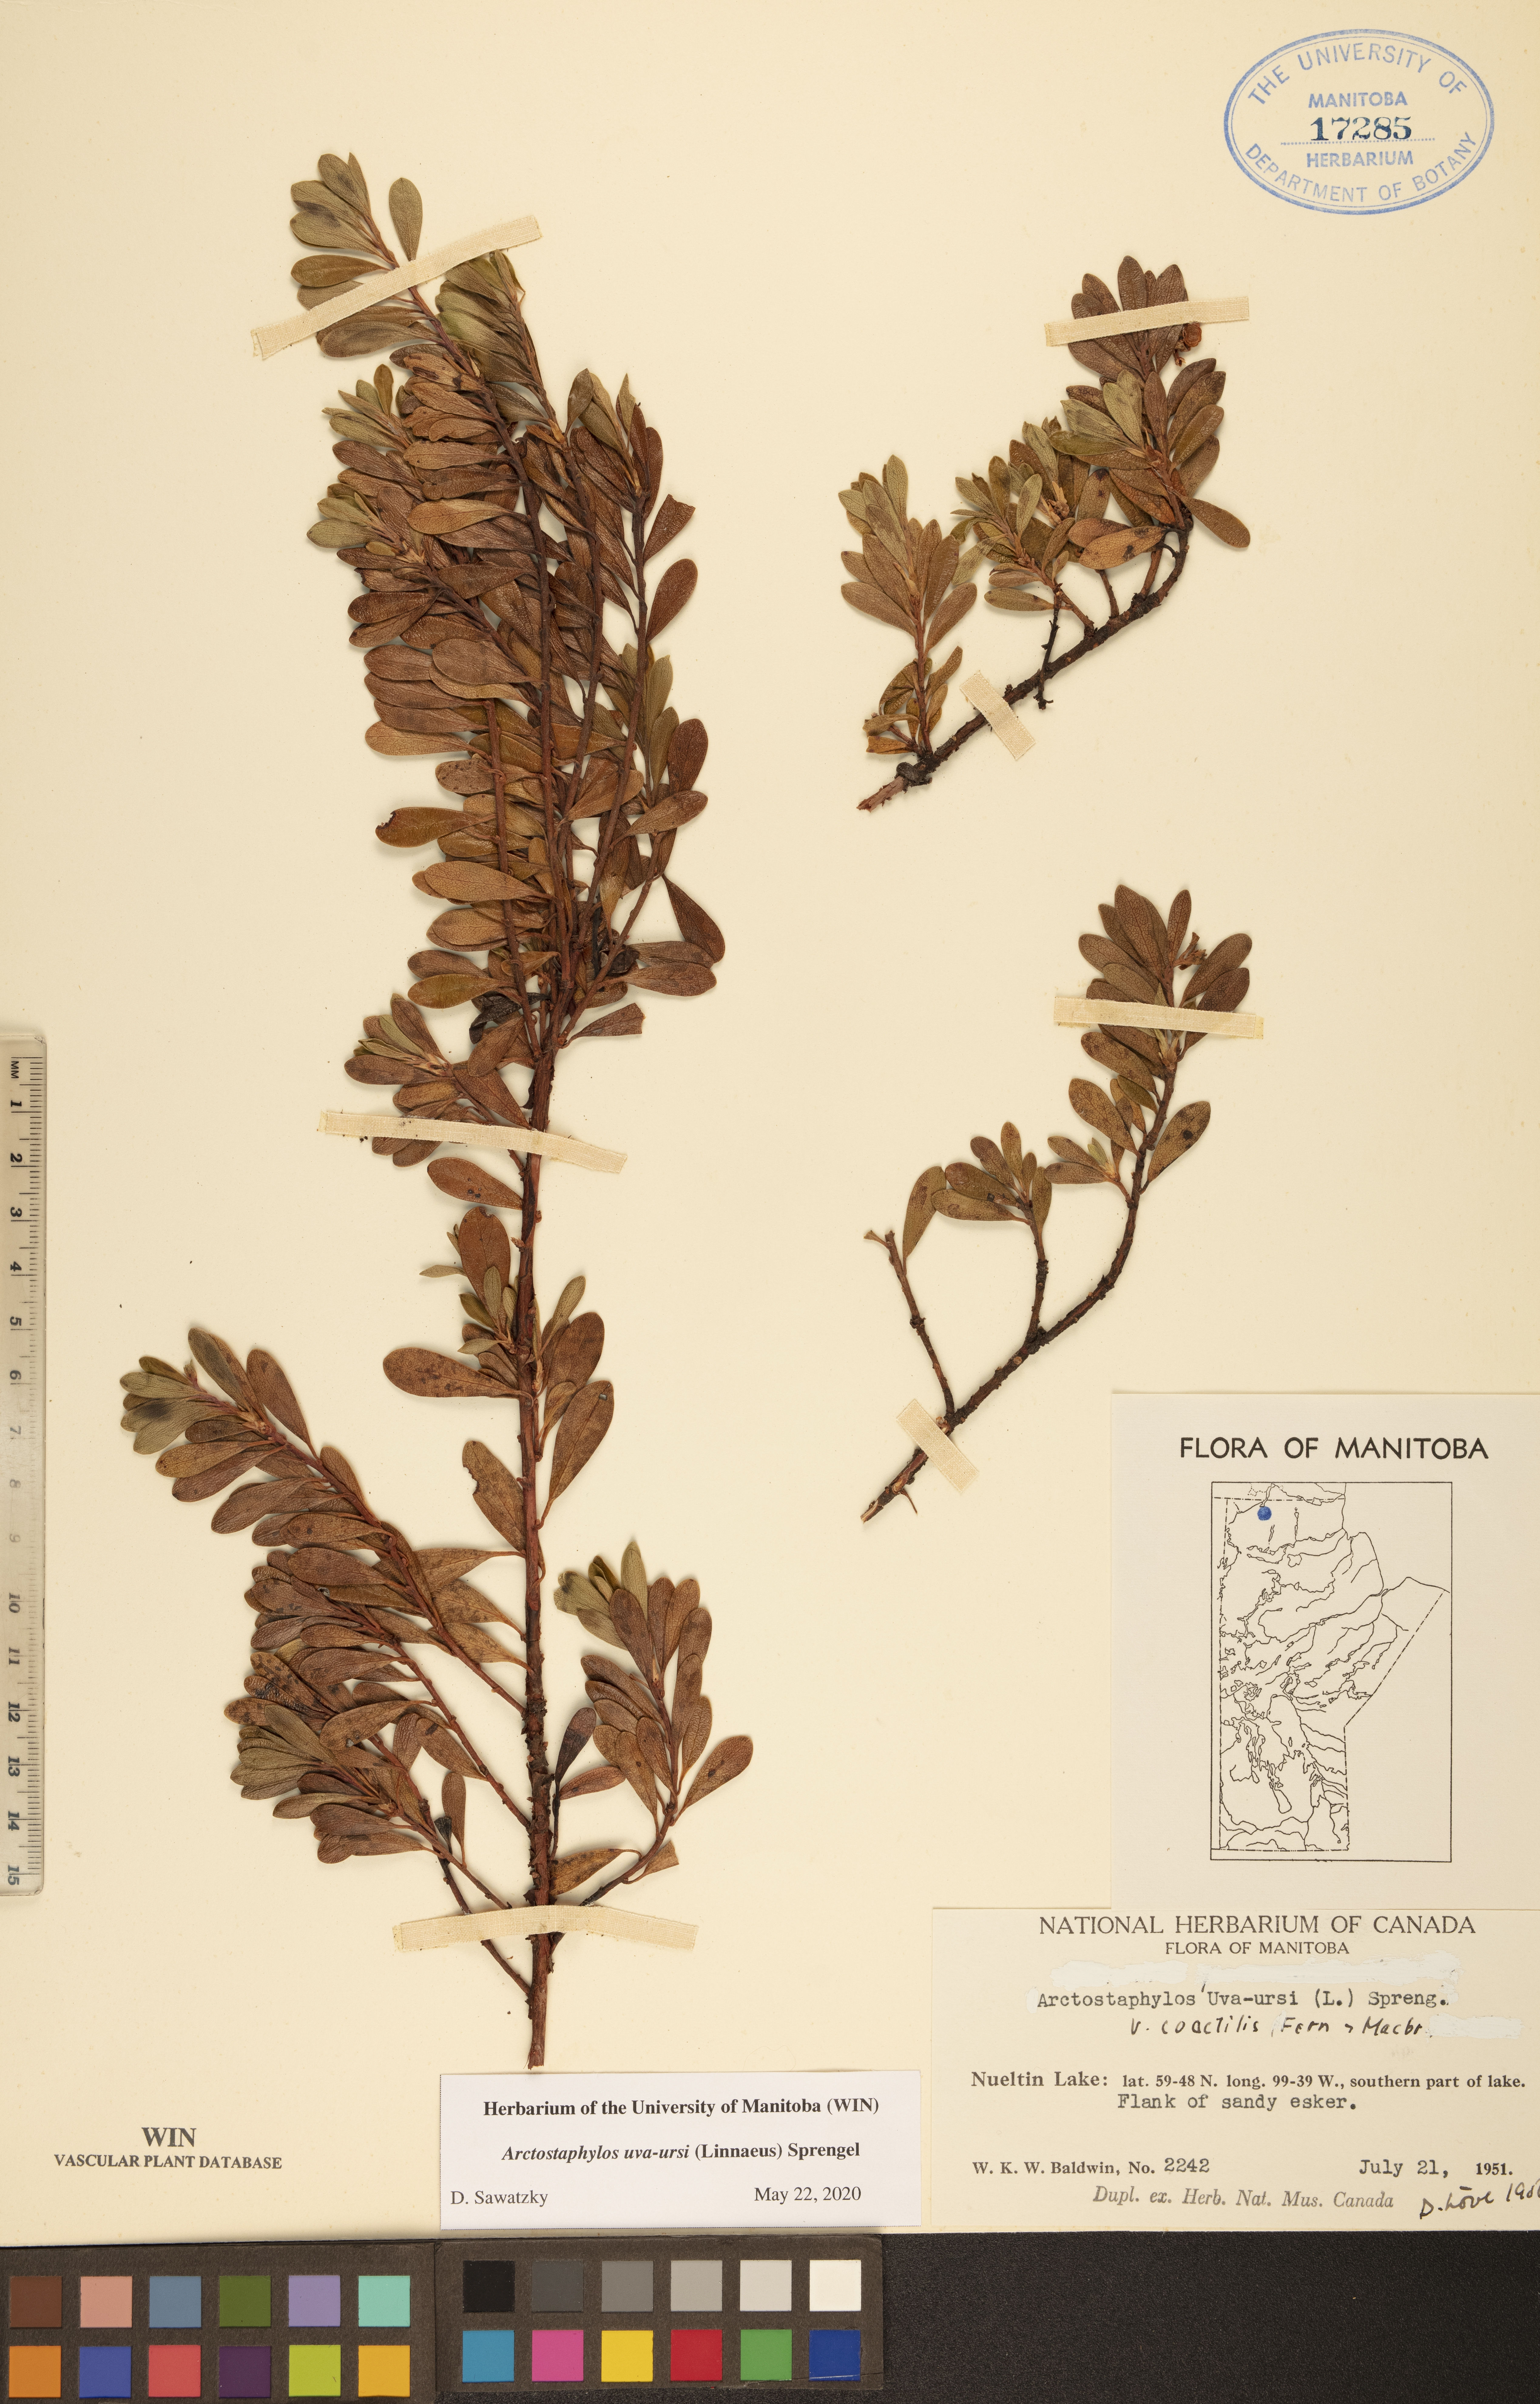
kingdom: Plantae
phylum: Tracheophyta
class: Magnoliopsida
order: Ericales
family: Ericaceae
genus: Arctostaphylos
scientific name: Arctostaphylos uva-ursi
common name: Bearberry
